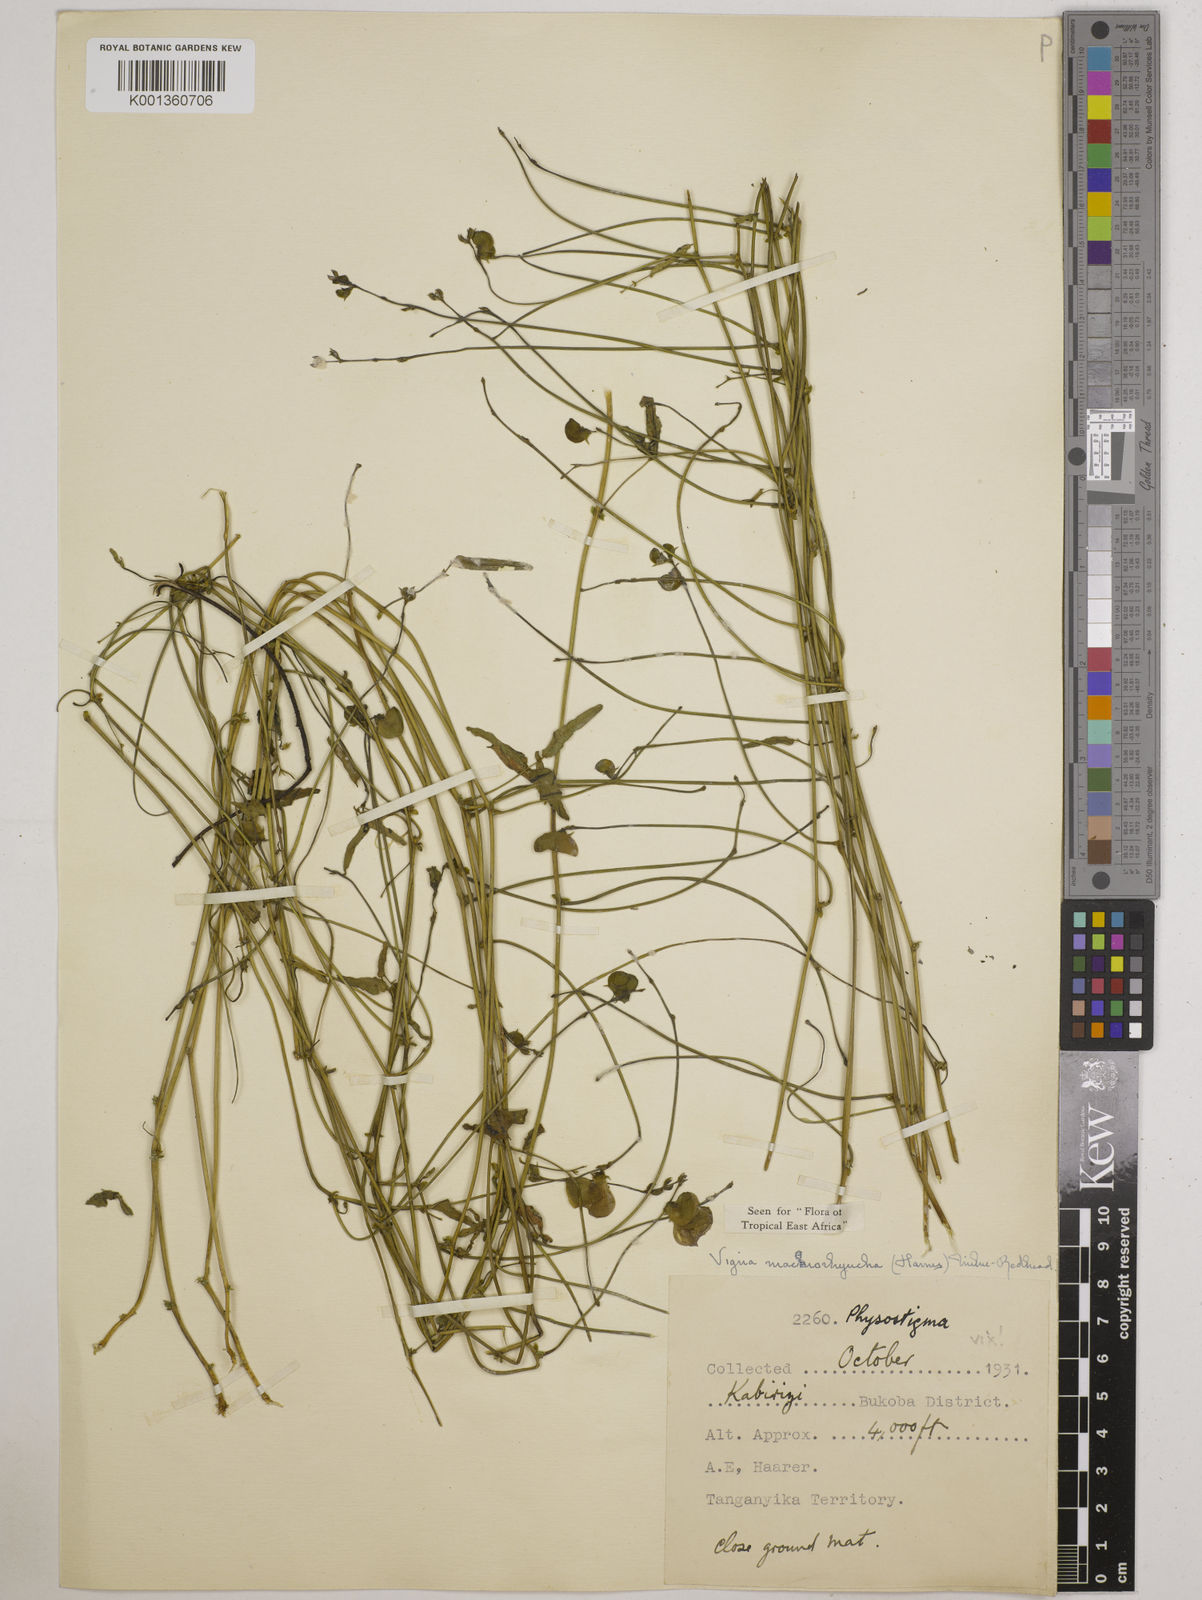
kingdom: Plantae
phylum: Tracheophyta
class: Magnoliopsida
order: Fabales
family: Fabaceae
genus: Wajira
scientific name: Wajira grahamiana
